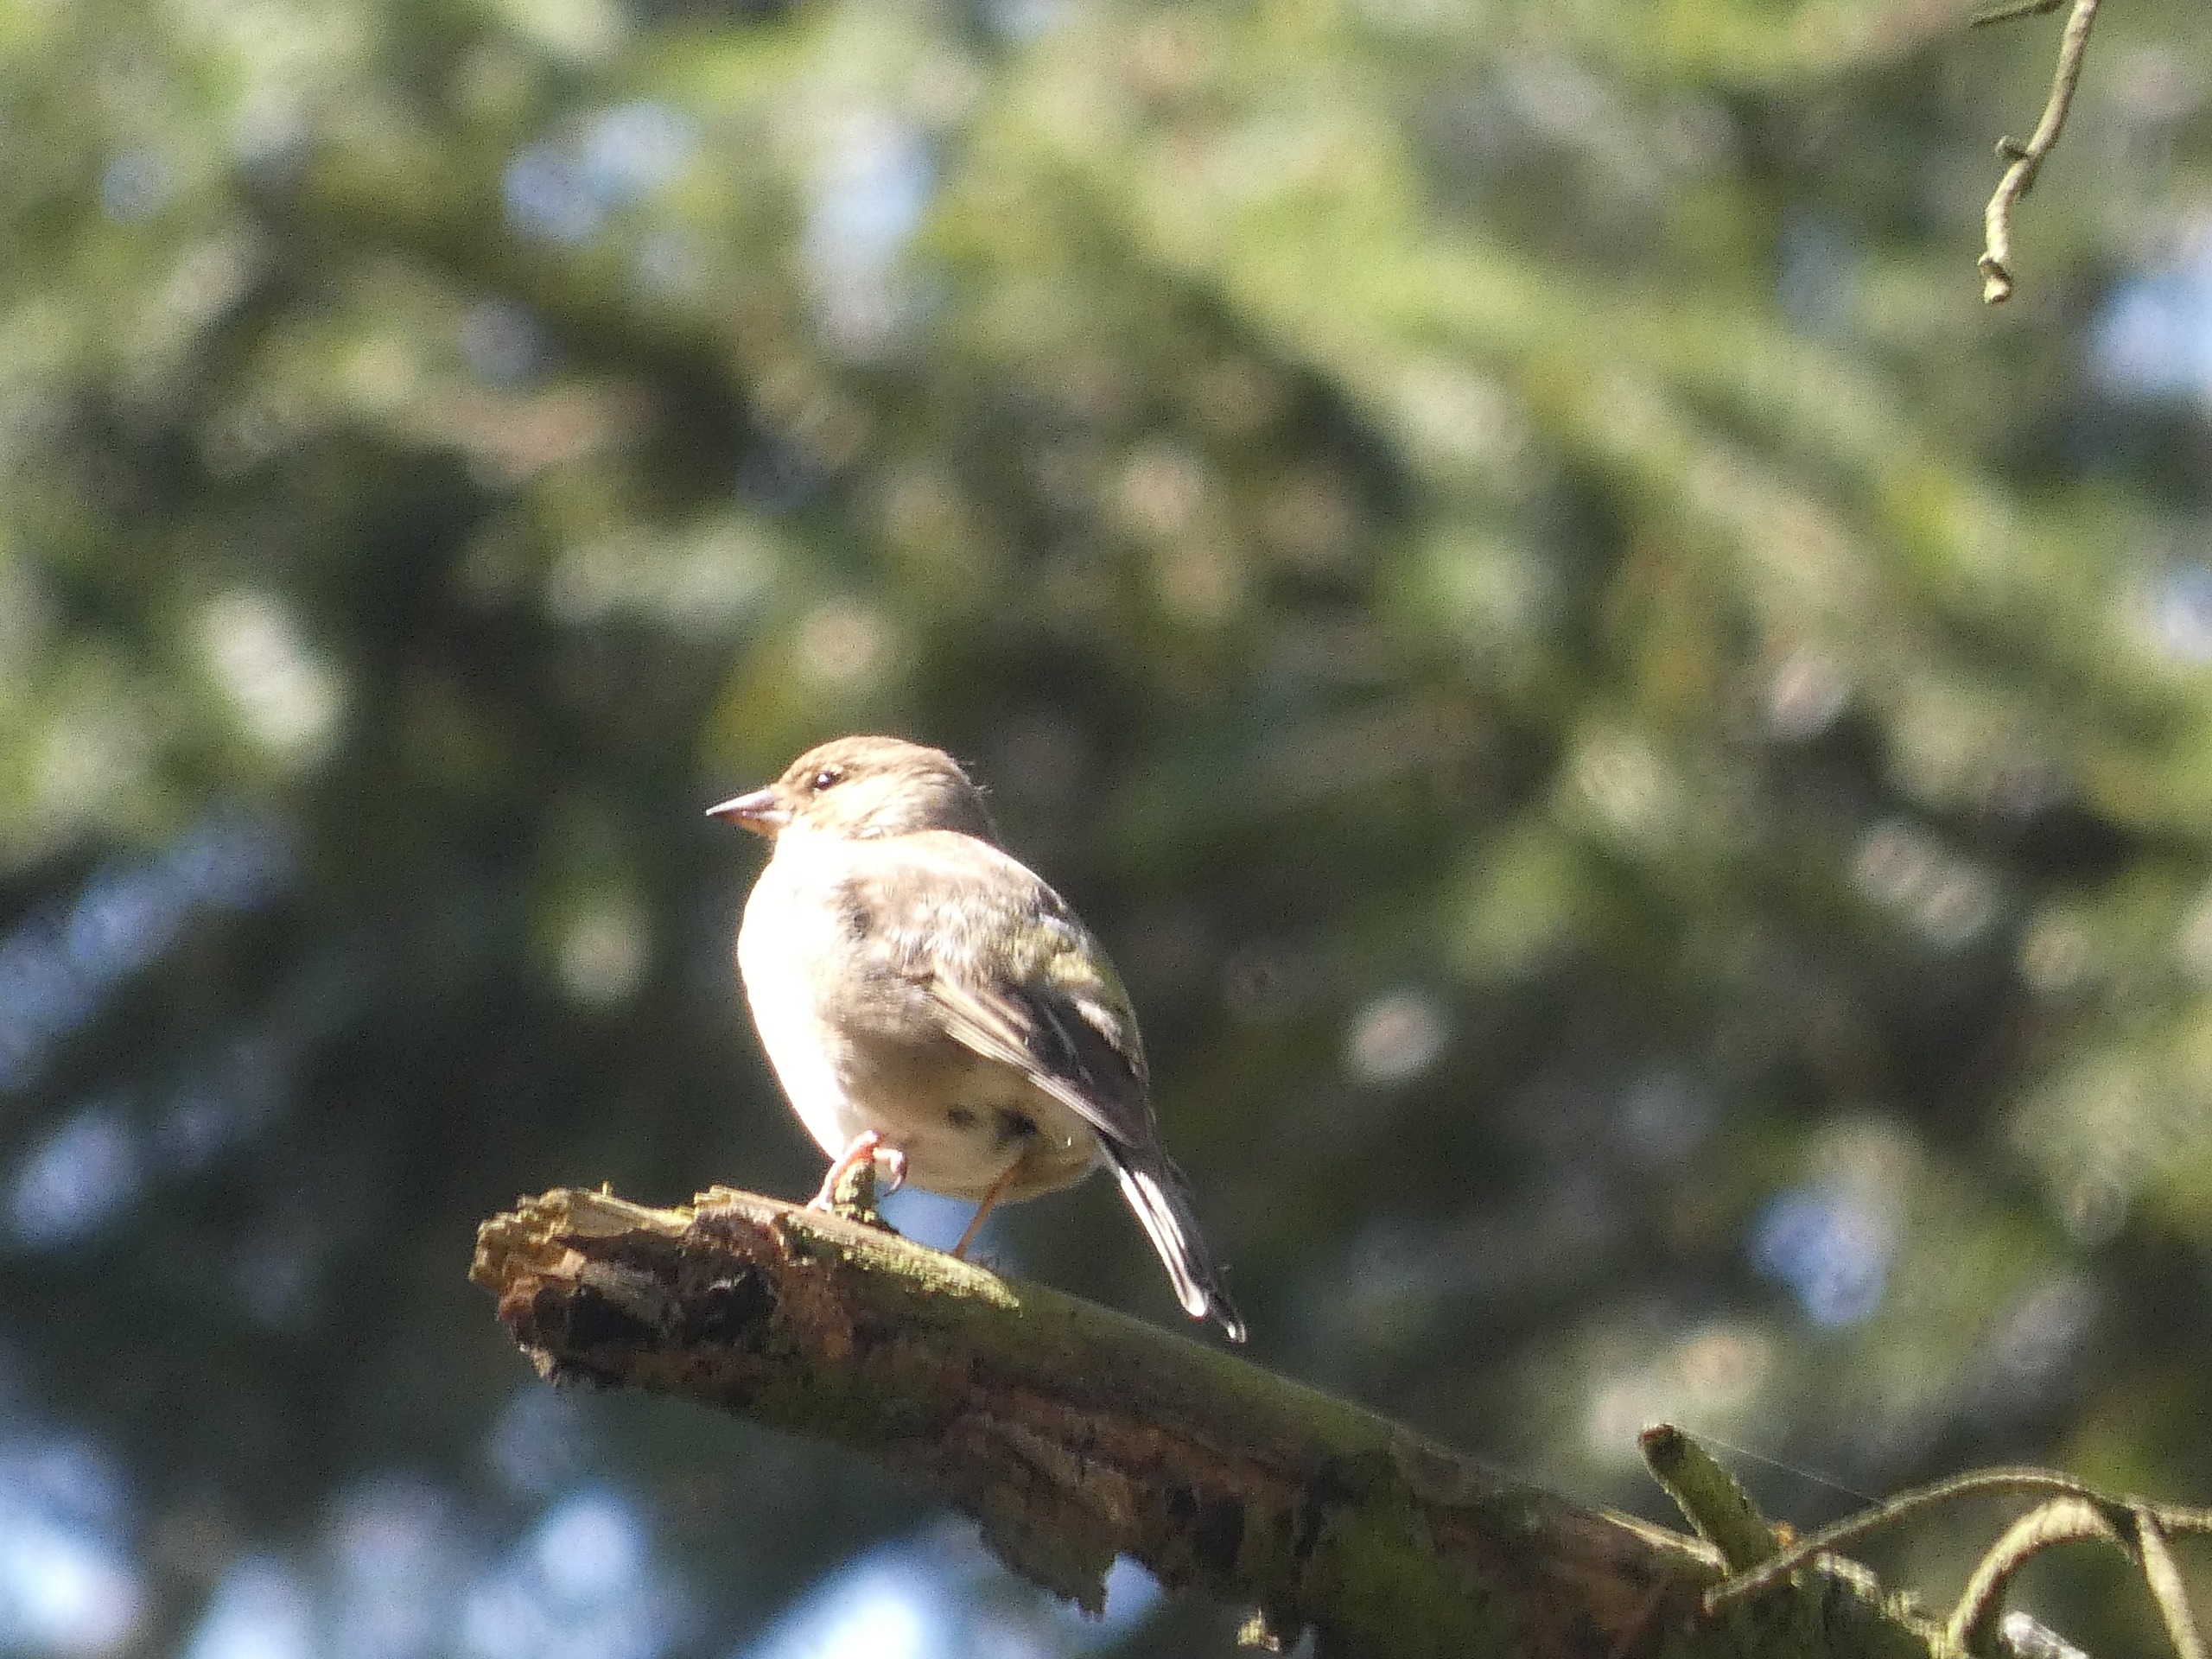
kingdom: Animalia
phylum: Chordata
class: Aves
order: Passeriformes
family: Fringillidae
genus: Fringilla
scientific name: Fringilla coelebs
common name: Bogfinke
